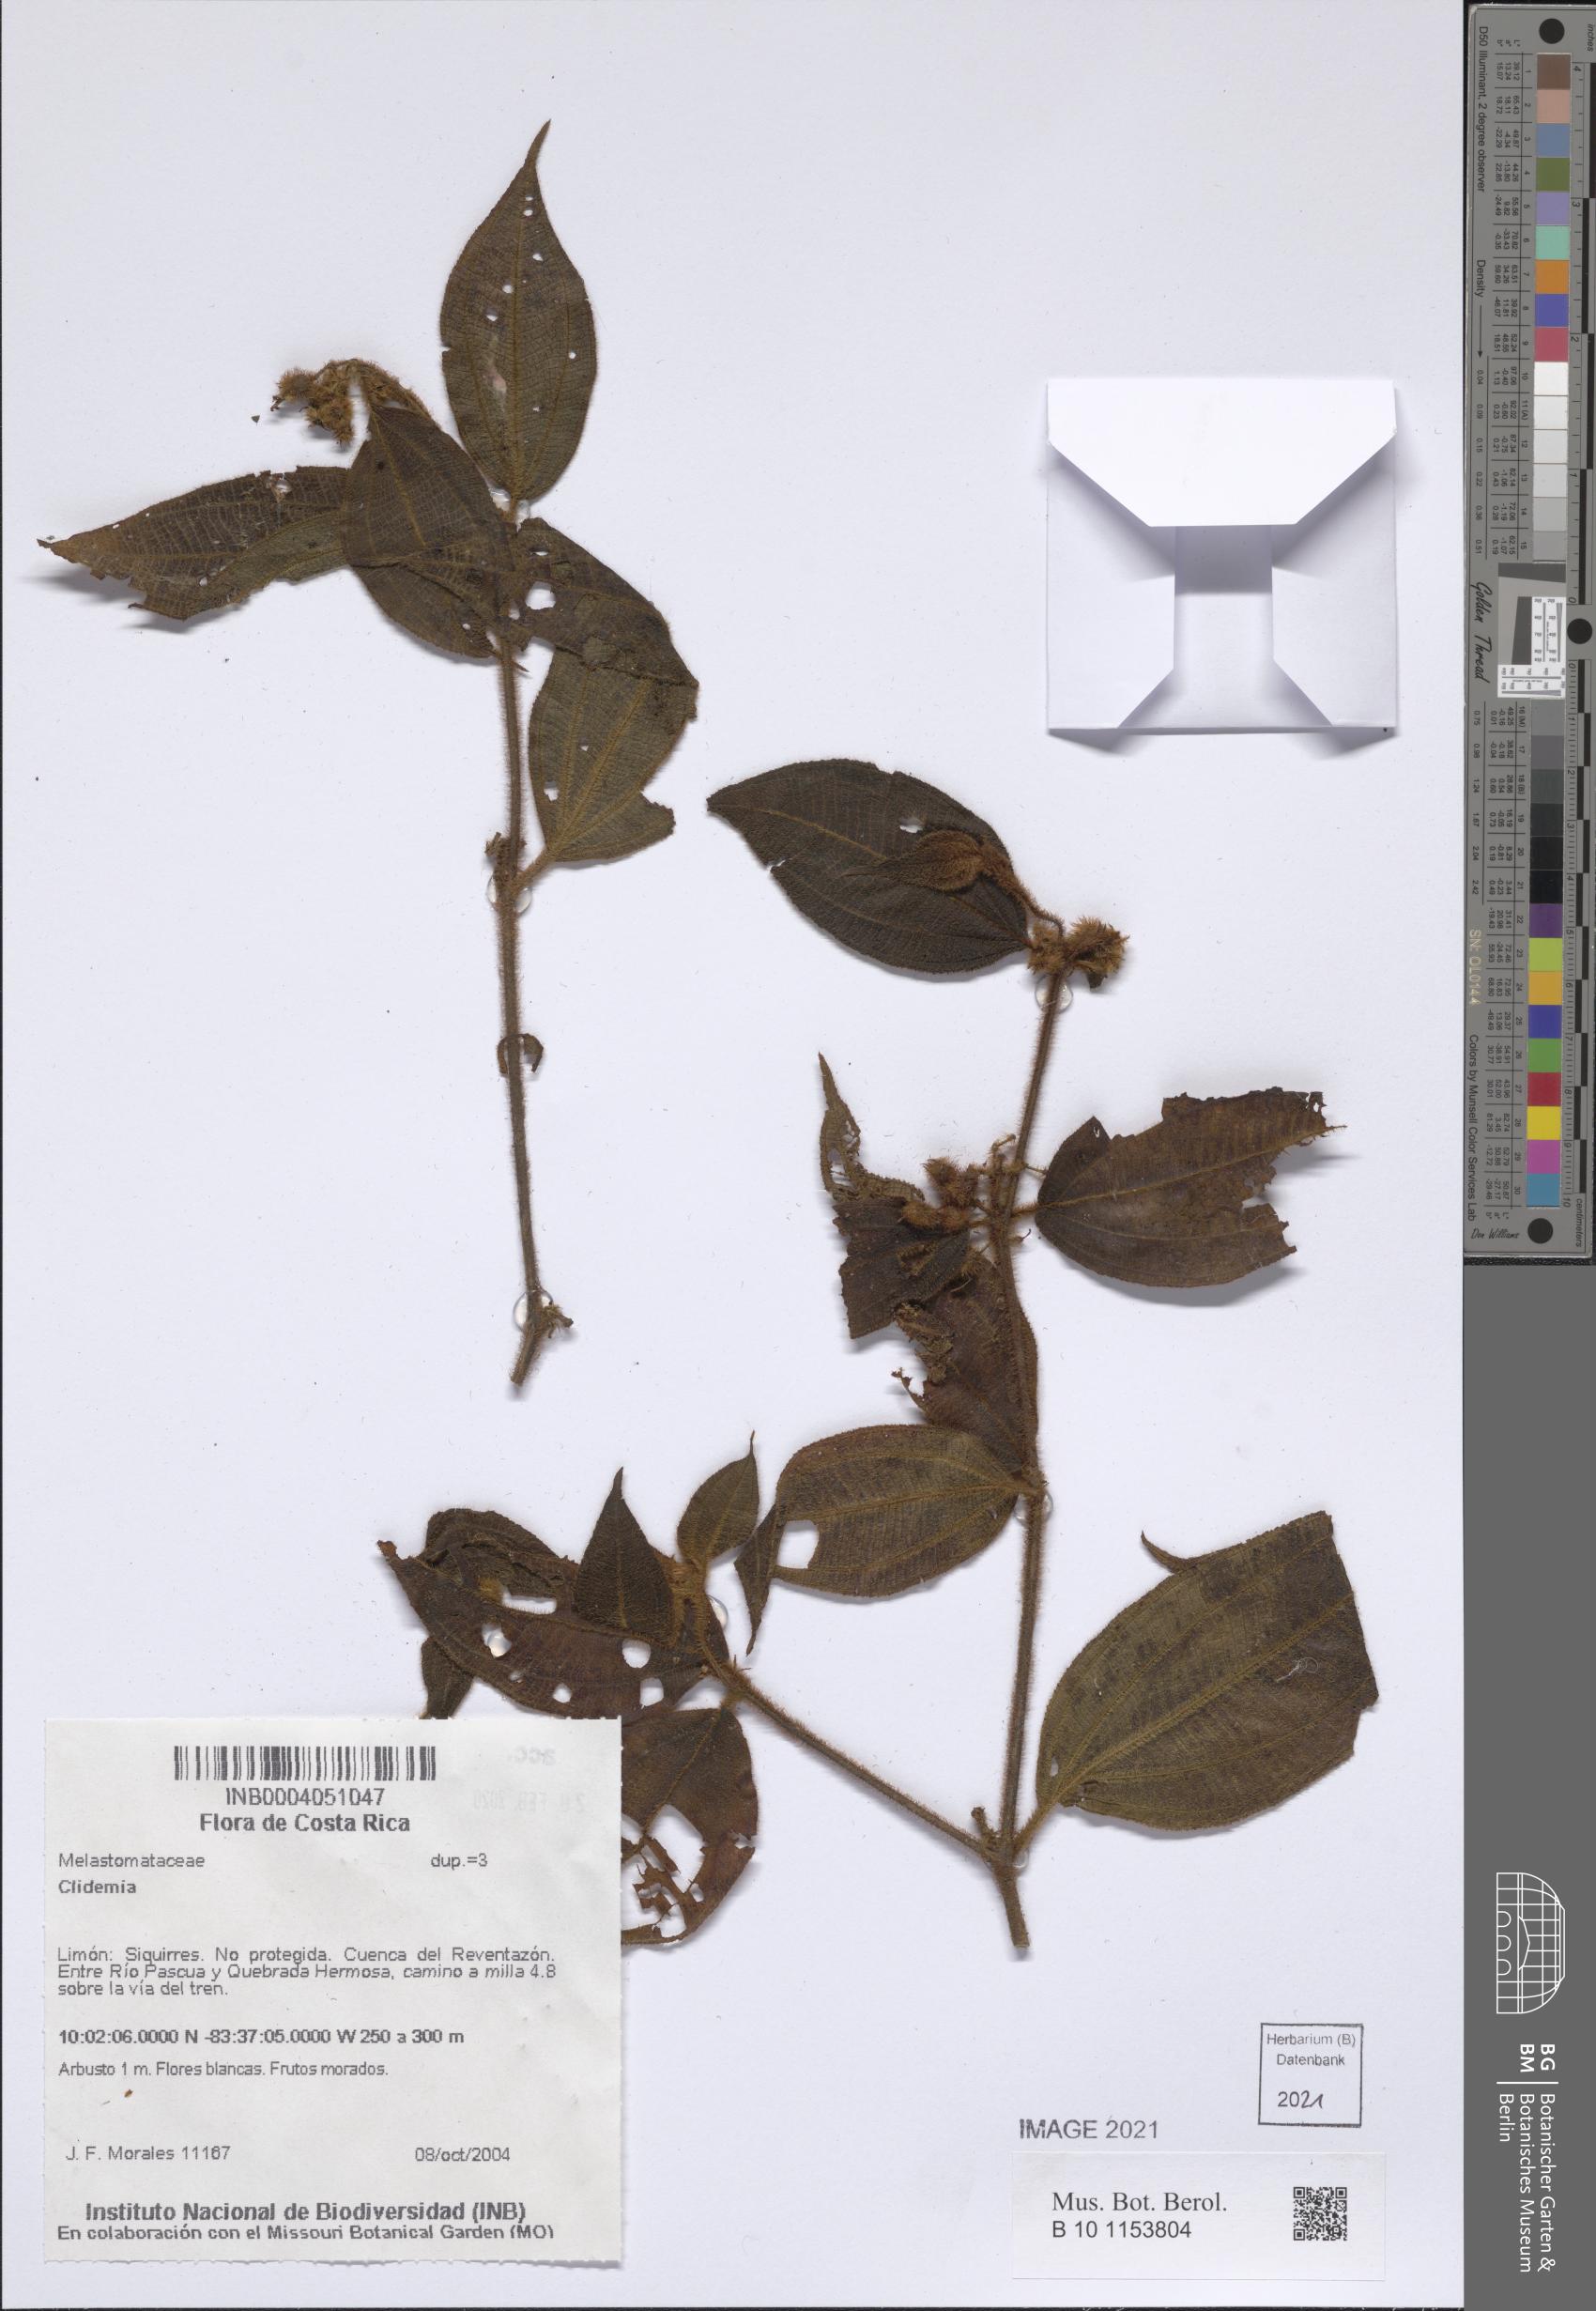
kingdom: Plantae
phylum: Tracheophyta
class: Magnoliopsida
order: Myrtales
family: Melastomataceae
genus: Miconia
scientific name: Miconia
